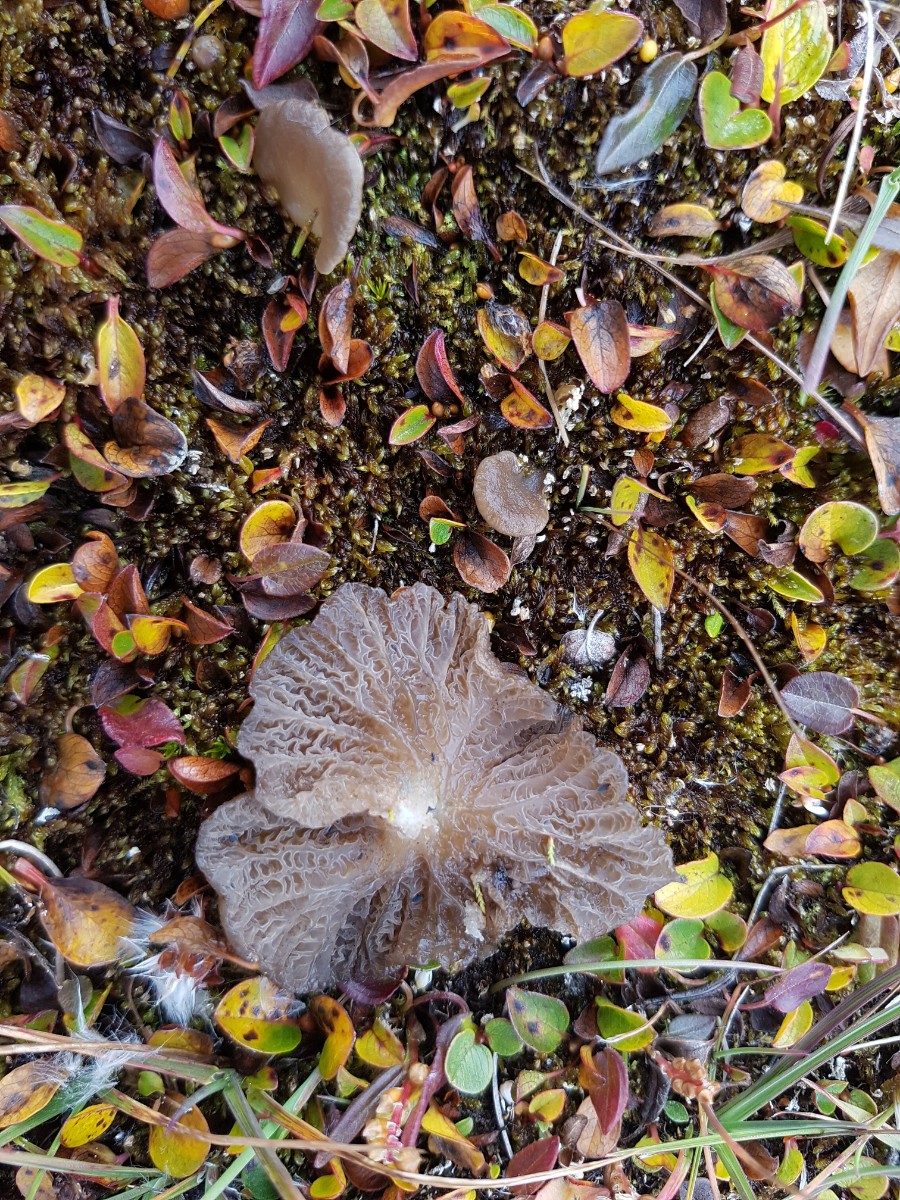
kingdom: Fungi
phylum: Basidiomycota
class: Agaricomycetes
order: Agaricales
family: Hygrophoraceae
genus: Arrhenia
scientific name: Arrhenia lobata
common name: siddende fontænehat
